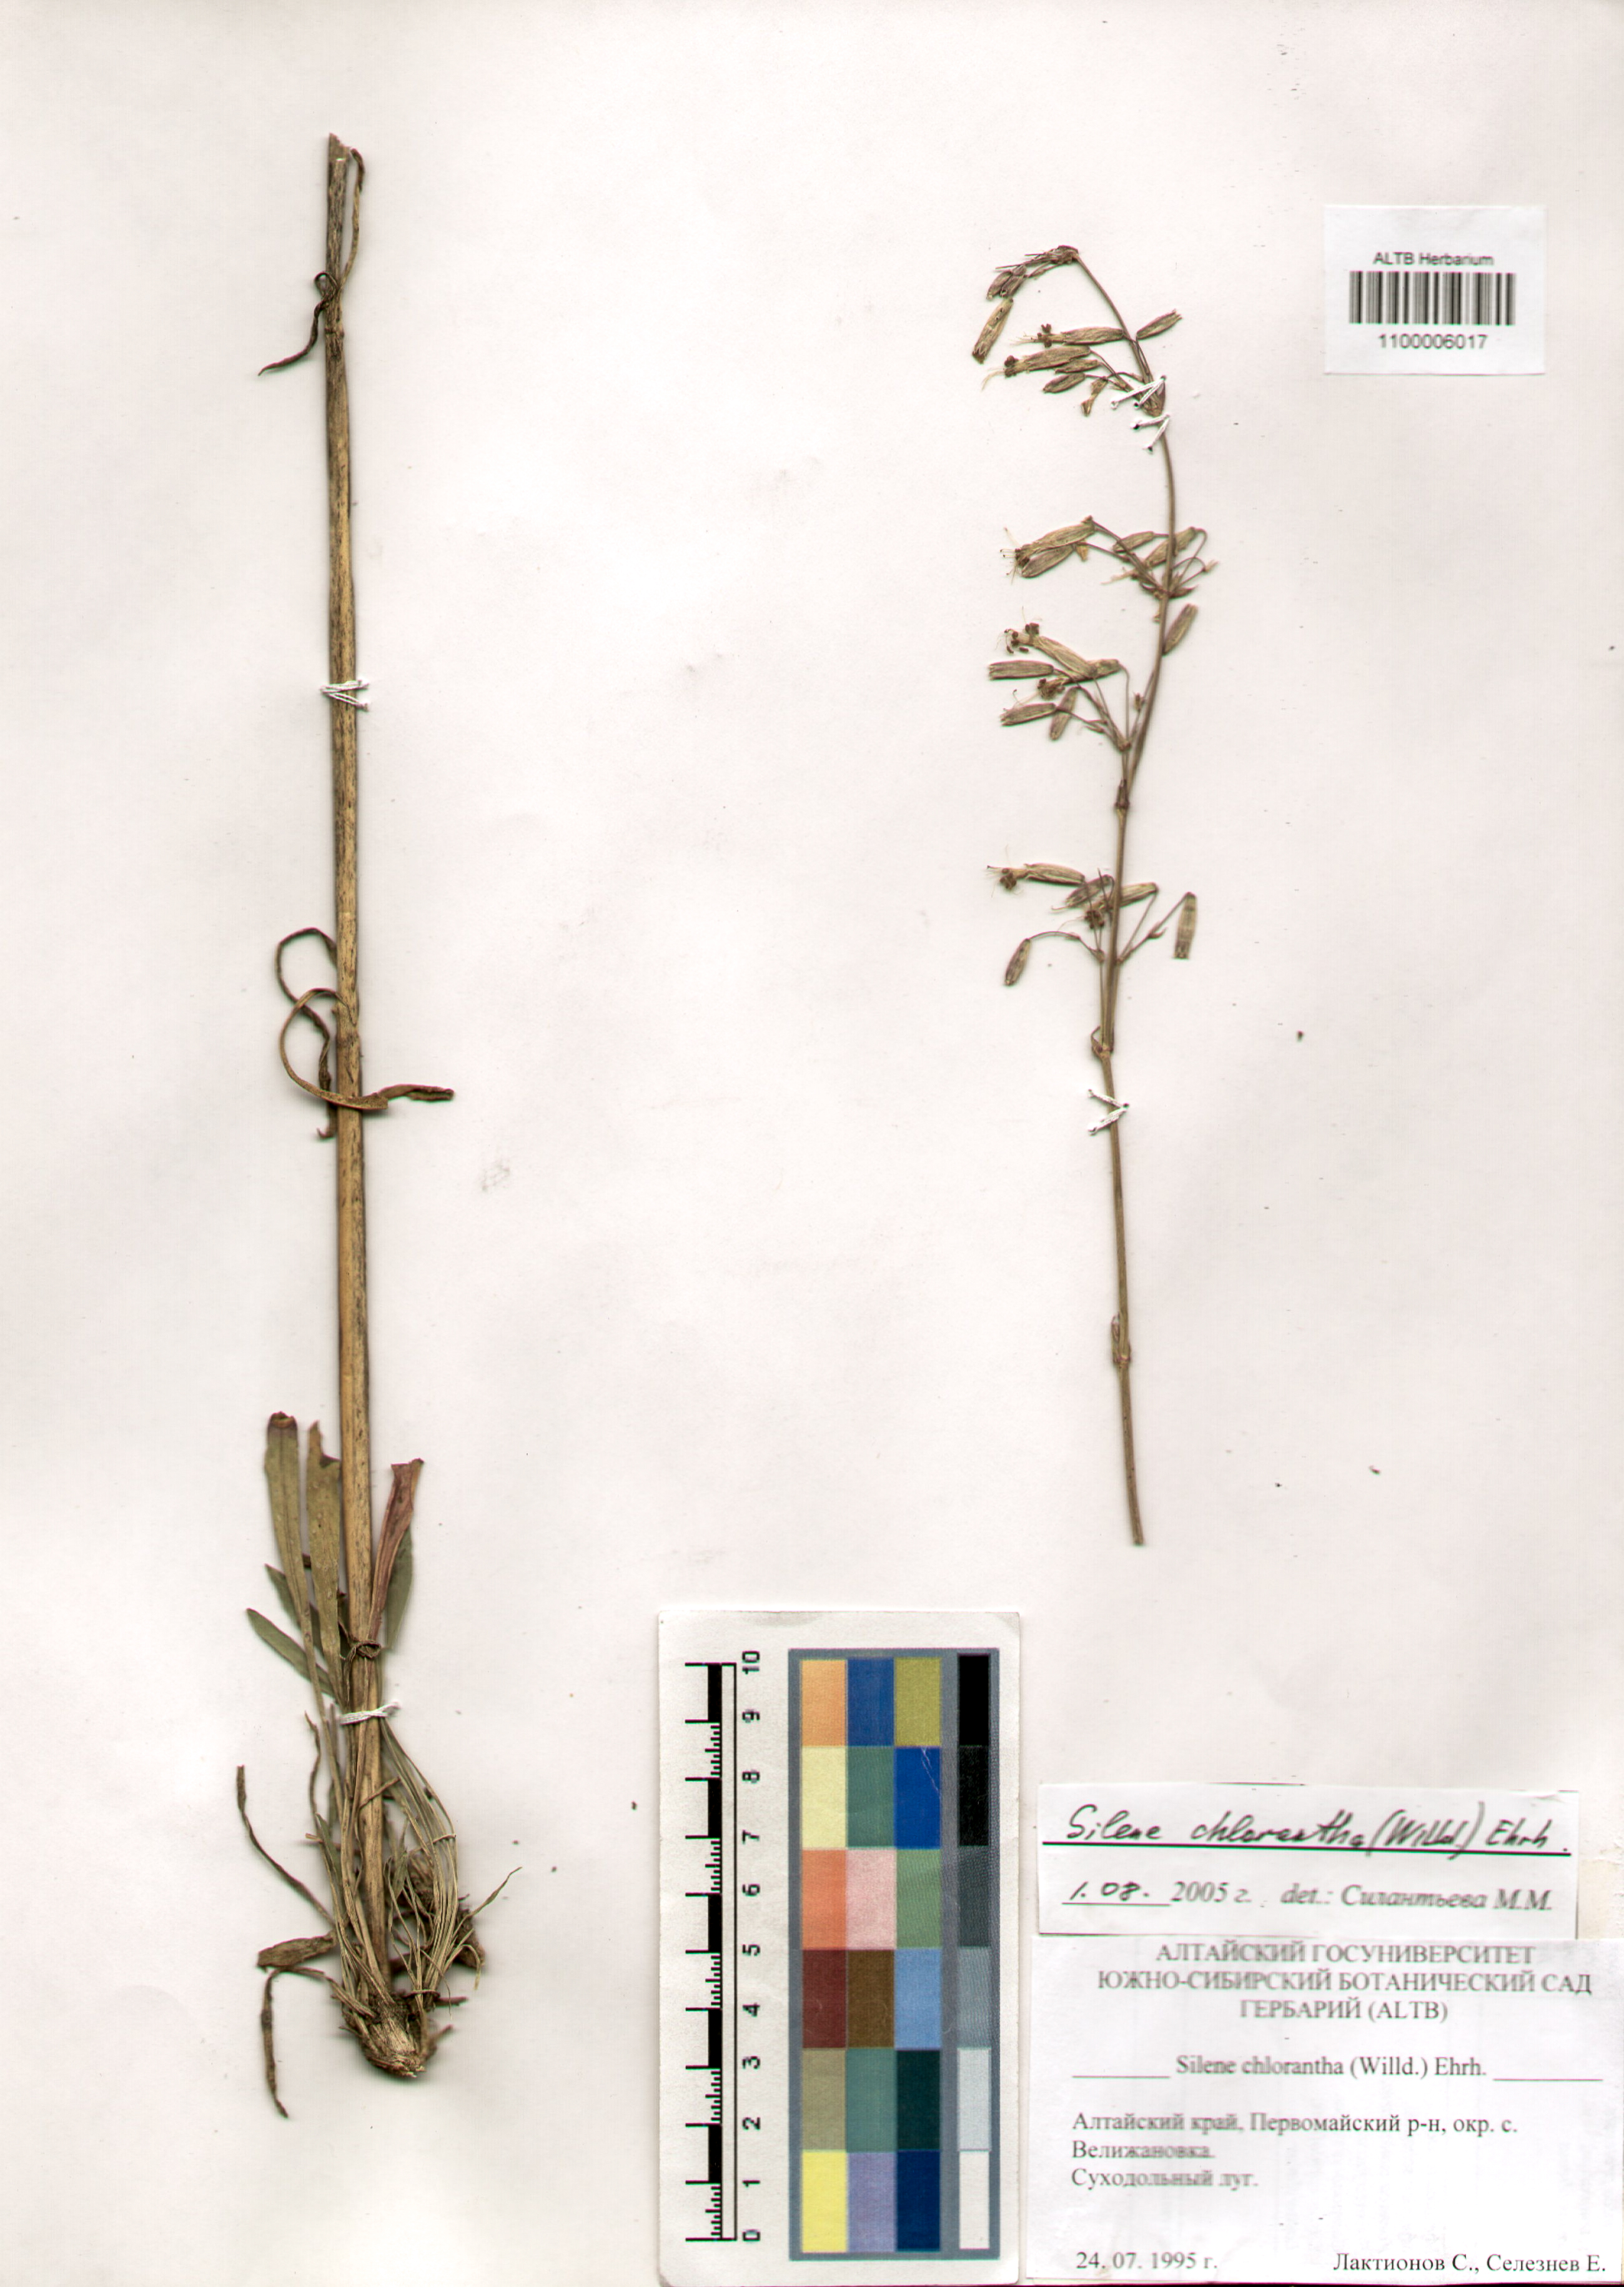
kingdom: Plantae
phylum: Tracheophyta
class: Magnoliopsida
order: Caryophyllales
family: Caryophyllaceae
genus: Silene
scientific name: Silene chlorantha
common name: Yellowgreen catchfly
